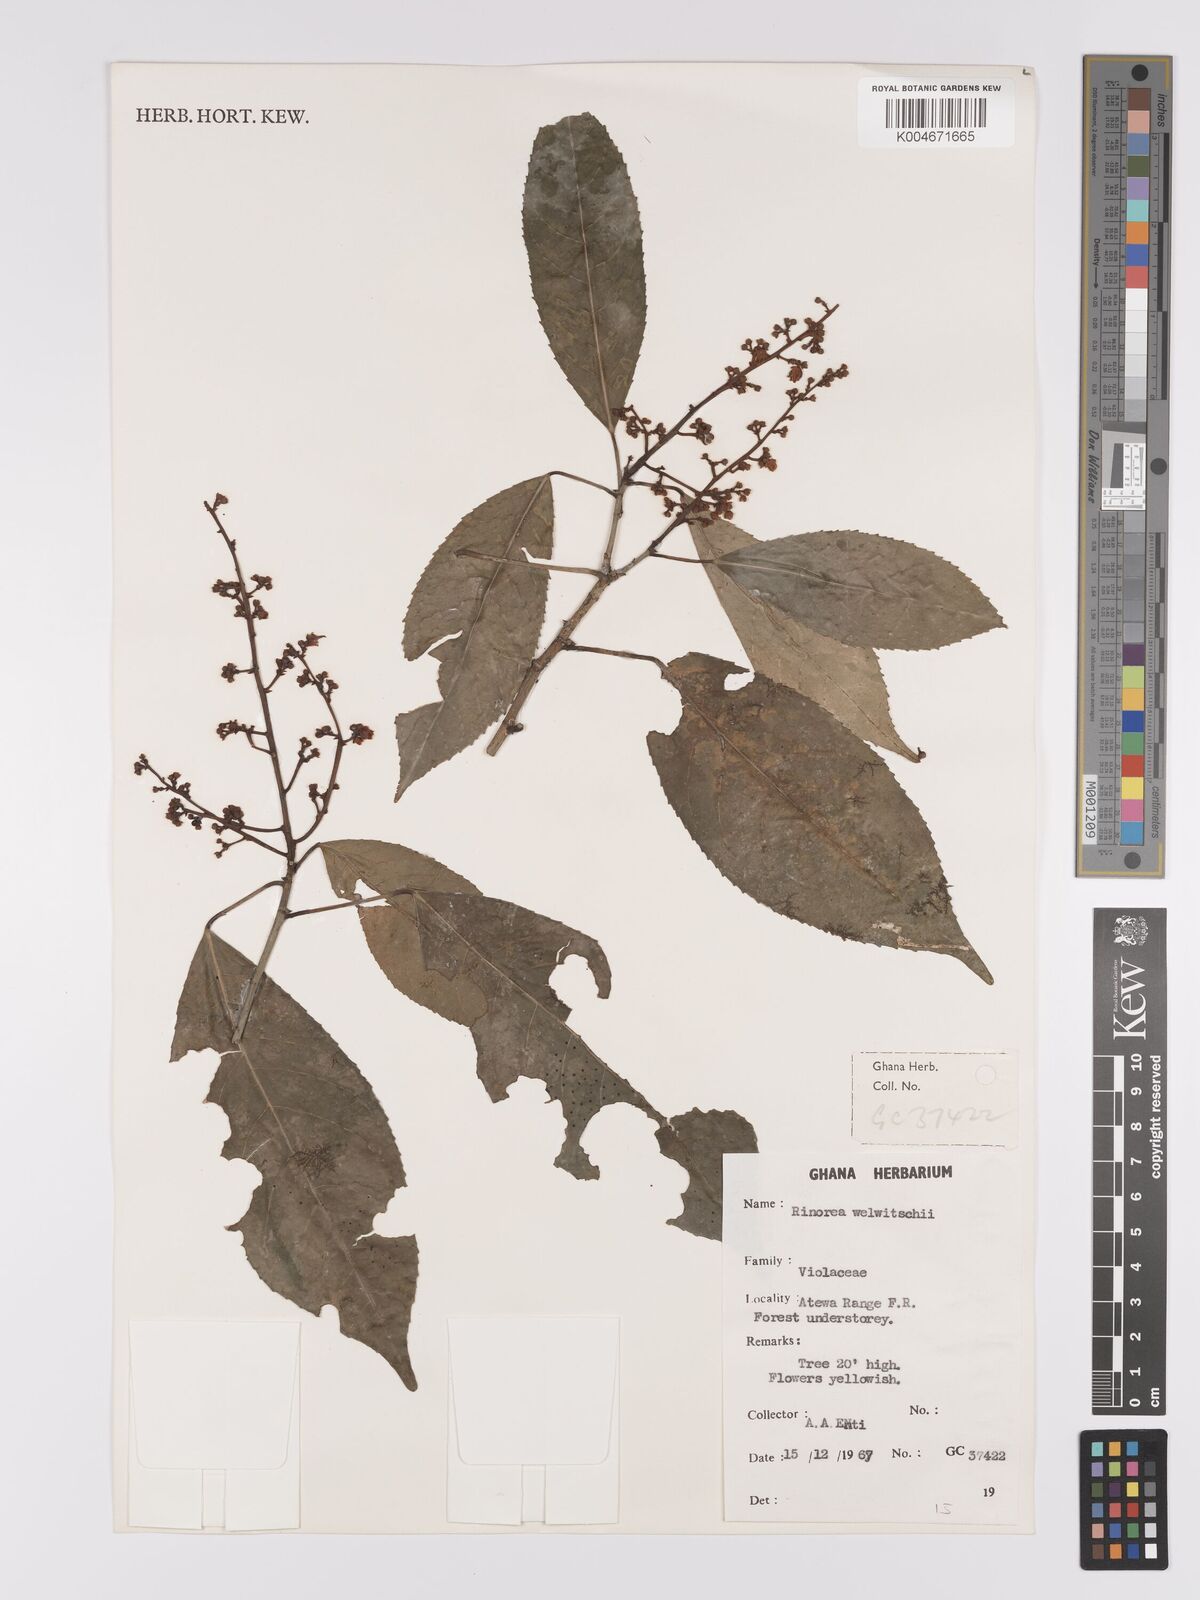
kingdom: Plantae
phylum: Tracheophyta
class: Magnoliopsida
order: Malpighiales
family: Violaceae
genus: Rinorea
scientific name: Rinorea welwitschii
